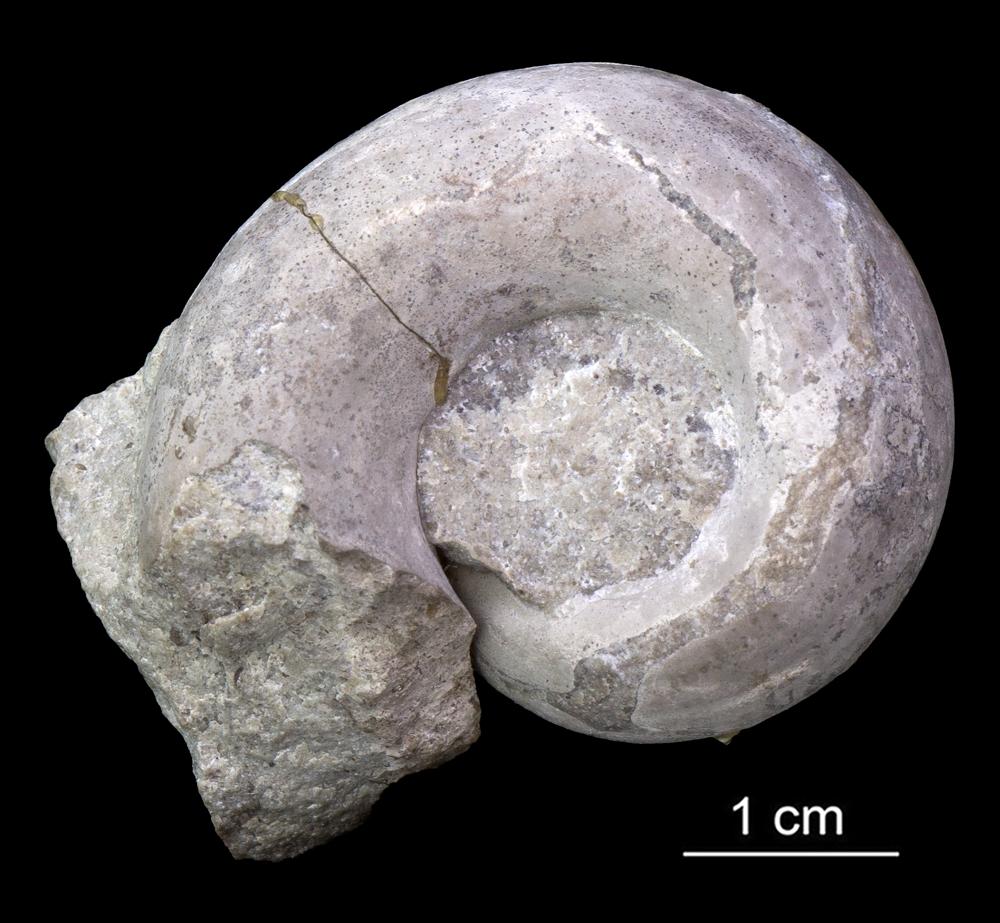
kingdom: Animalia
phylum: Mollusca
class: Gastropoda
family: Lesueurillidae
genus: Lesueurilla
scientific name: Lesueurilla
